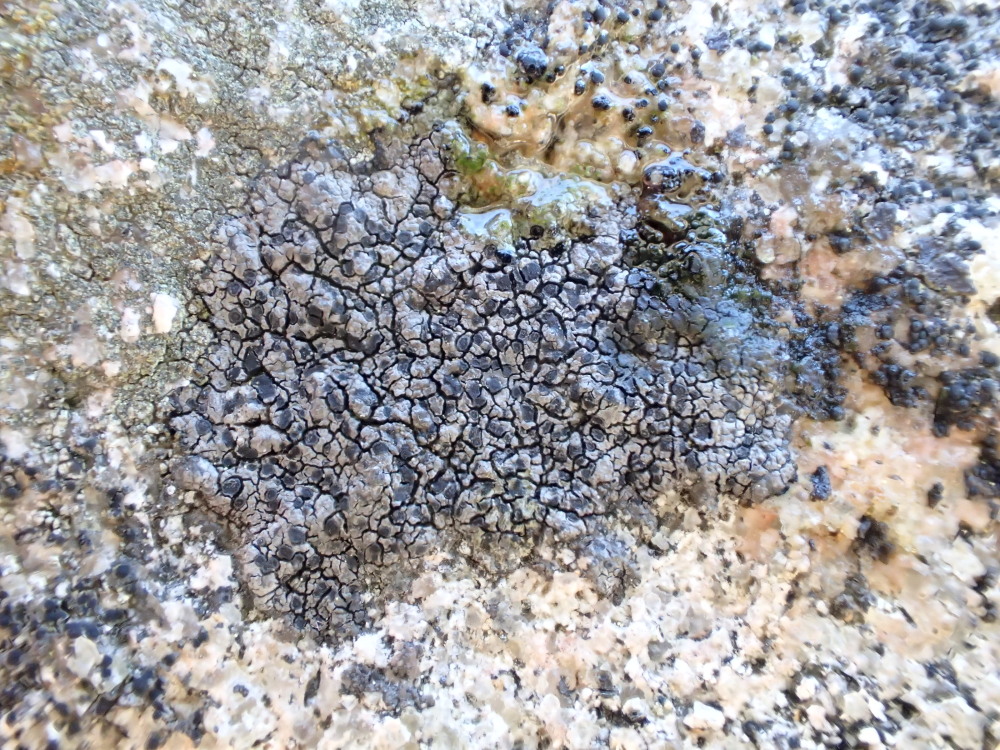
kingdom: Fungi
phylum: Ascomycota
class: Lecanoromycetes
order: Rhizocarpales
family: Rhizocarpaceae
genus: Rhizocarpon
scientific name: Rhizocarpon reductum
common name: mørk landkortlav
